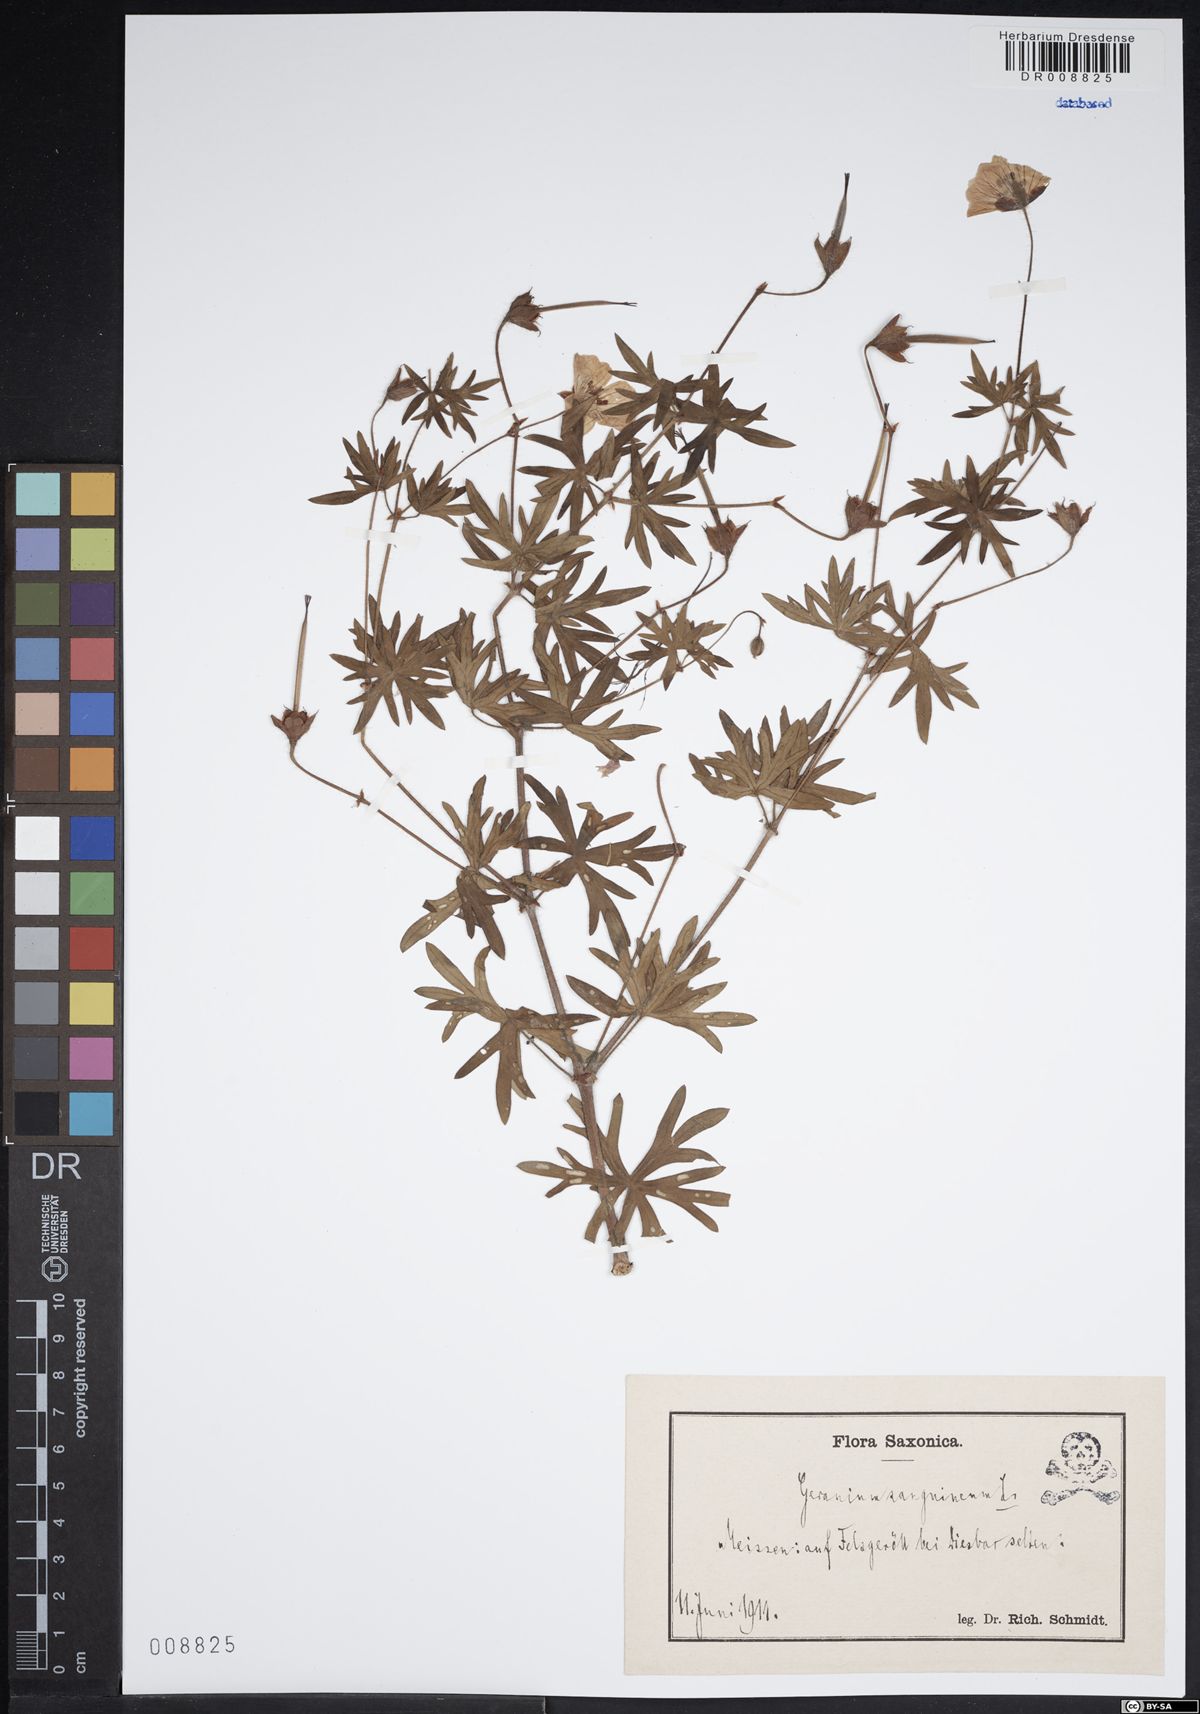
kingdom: Plantae
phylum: Tracheophyta
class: Magnoliopsida
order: Geraniales
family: Geraniaceae
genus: Geranium
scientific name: Geranium sanguineum
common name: Bloody crane's-bill
